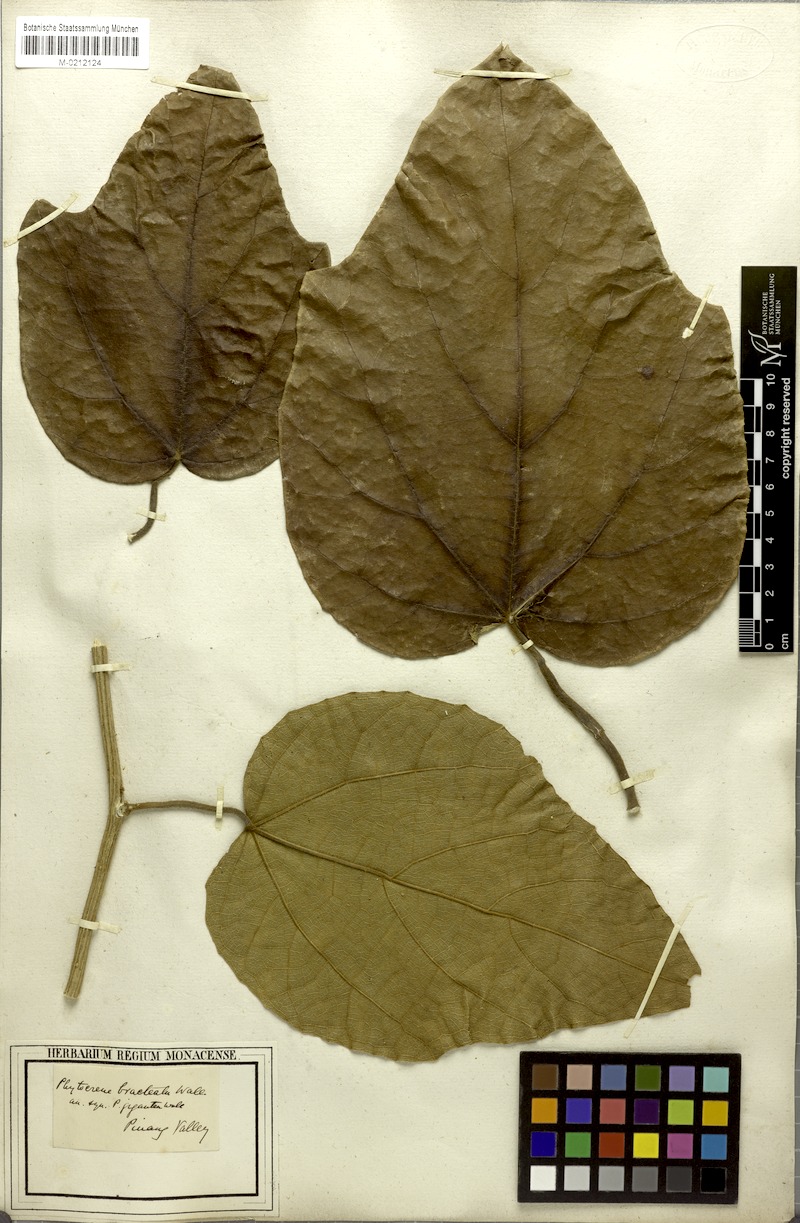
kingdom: Plantae
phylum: Tracheophyta
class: Magnoliopsida
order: Icacinales
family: Icacinaceae
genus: Phytocrene
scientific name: Phytocrene bracteata
